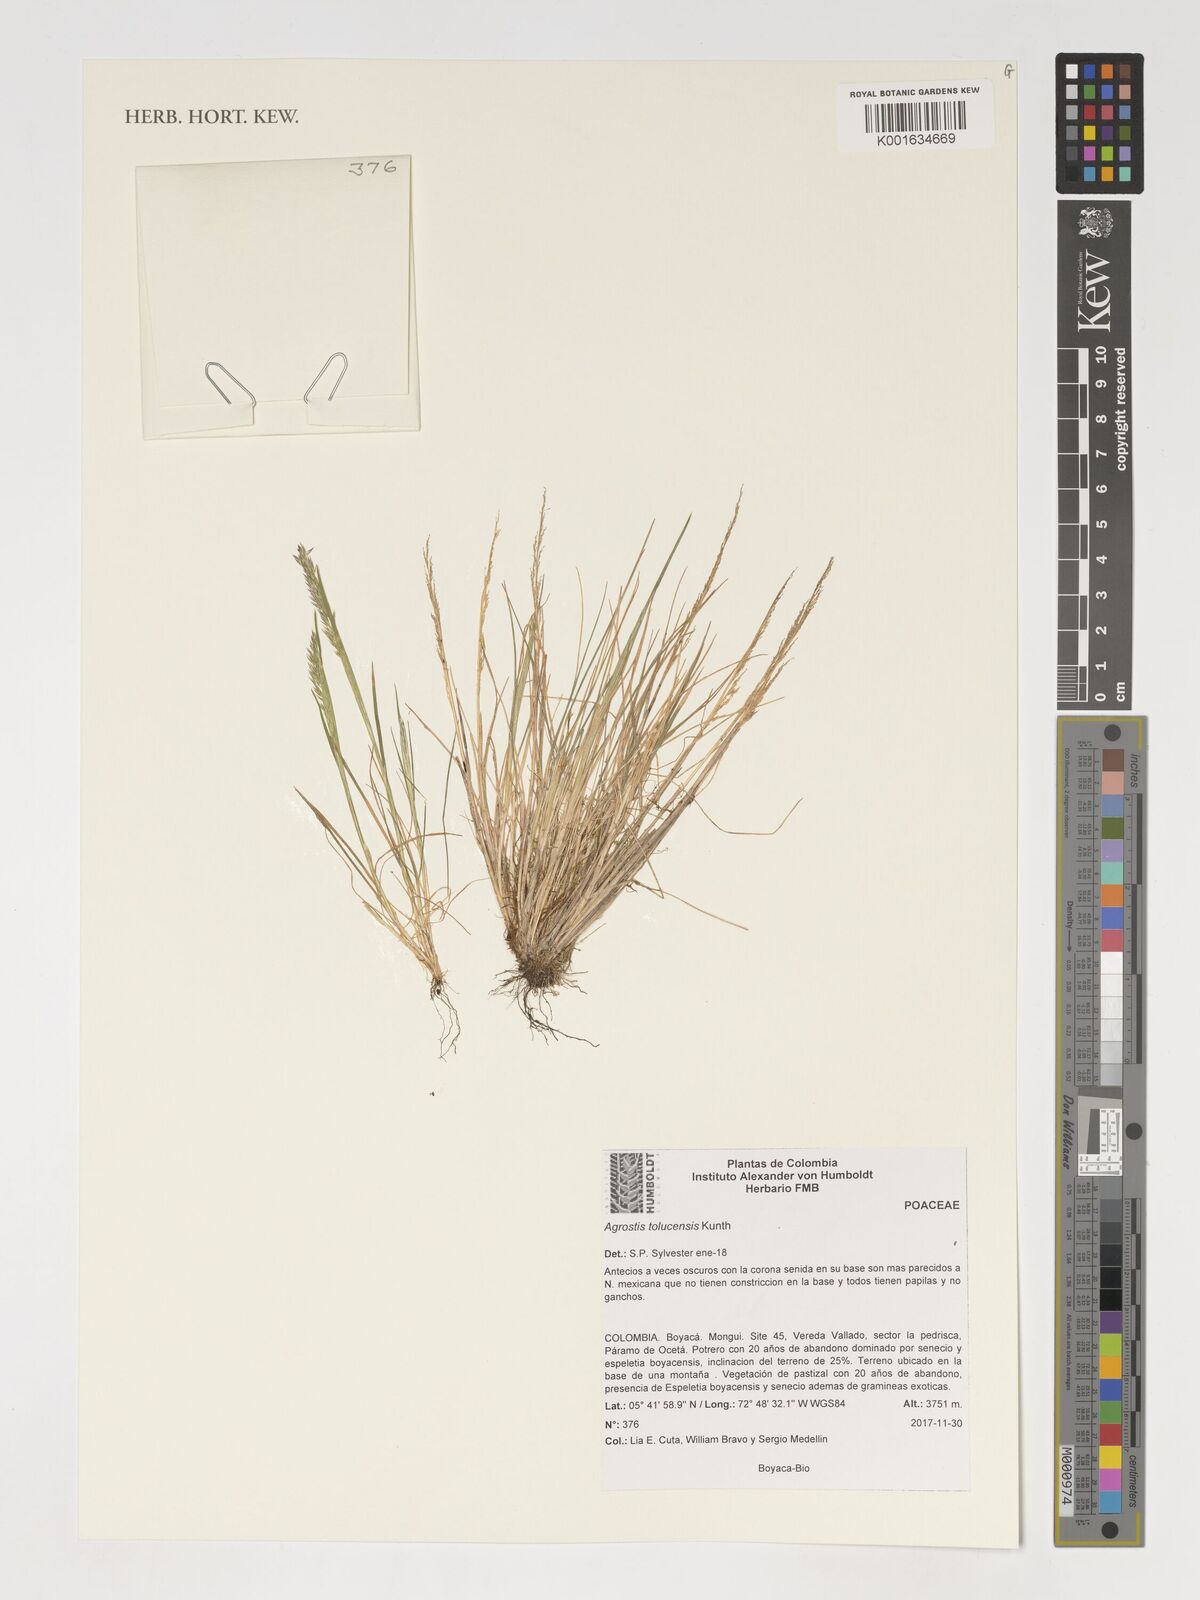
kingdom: Plantae
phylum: Tracheophyta
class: Liliopsida
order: Poales
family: Poaceae
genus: Agrostis
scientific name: Agrostis tolucensis
